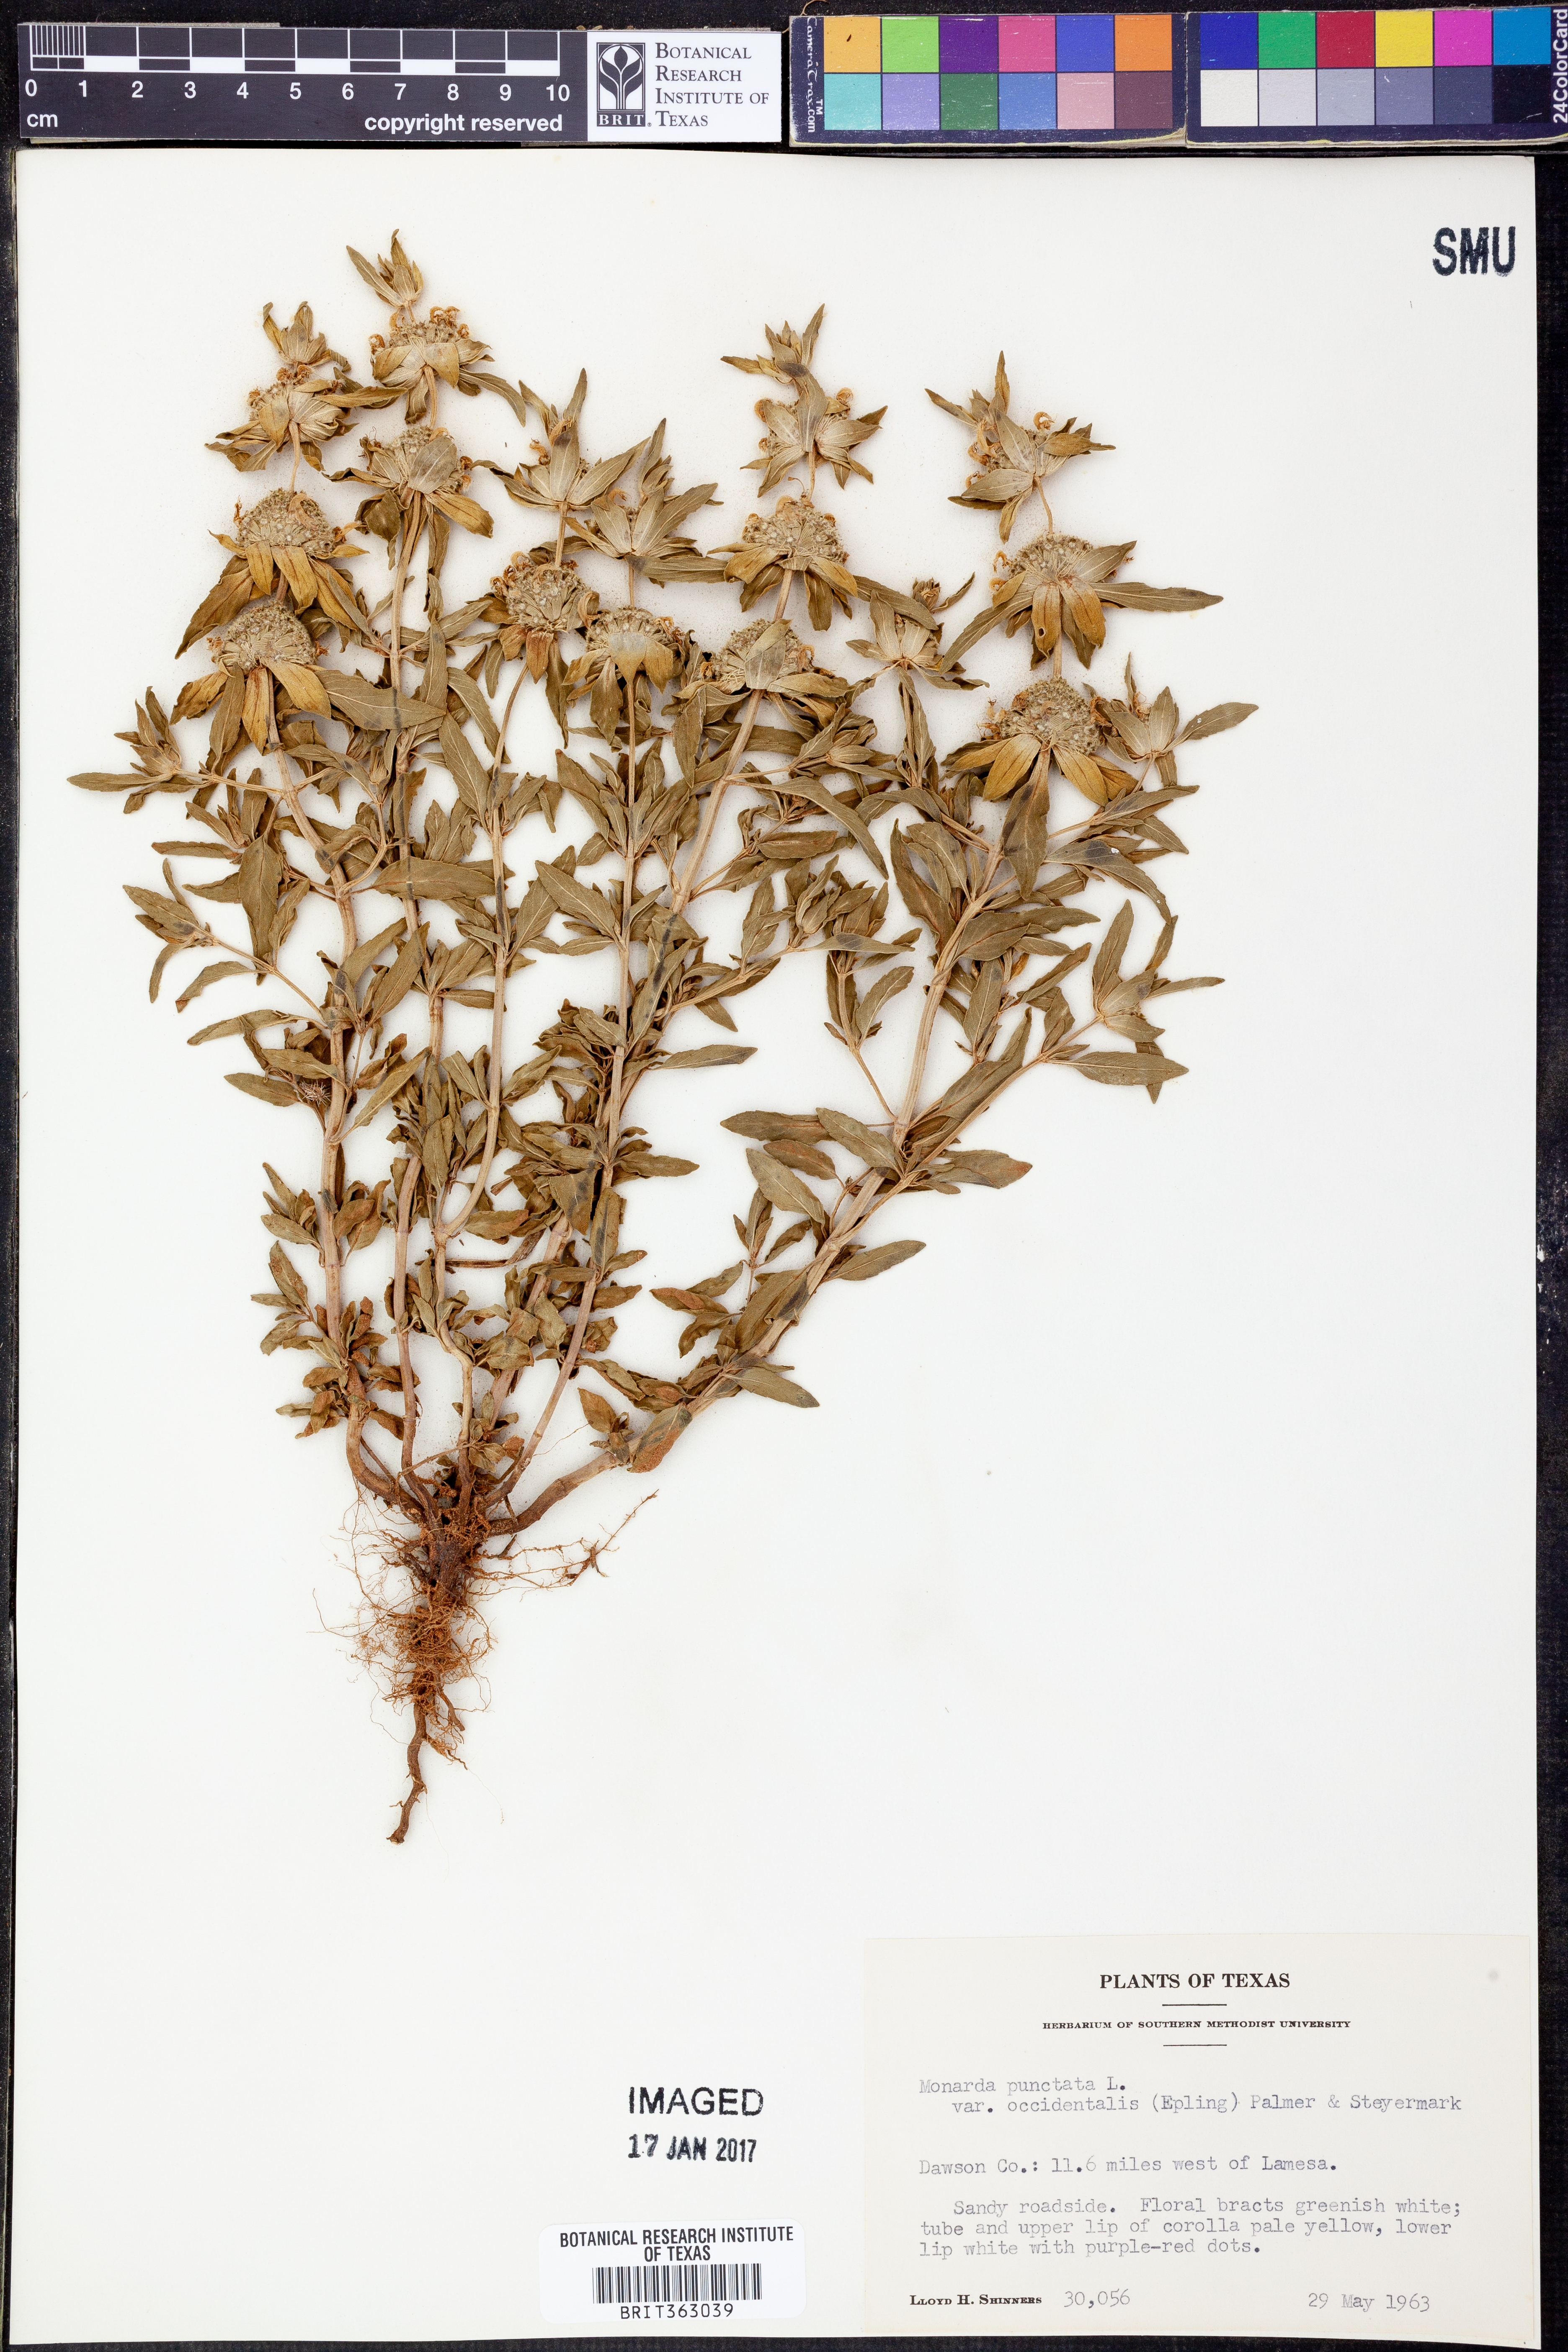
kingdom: Plantae
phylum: Tracheophyta
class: Magnoliopsida
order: Lamiales
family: Lamiaceae
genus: Monarda
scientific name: Monarda punctata
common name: Dotted monarda
